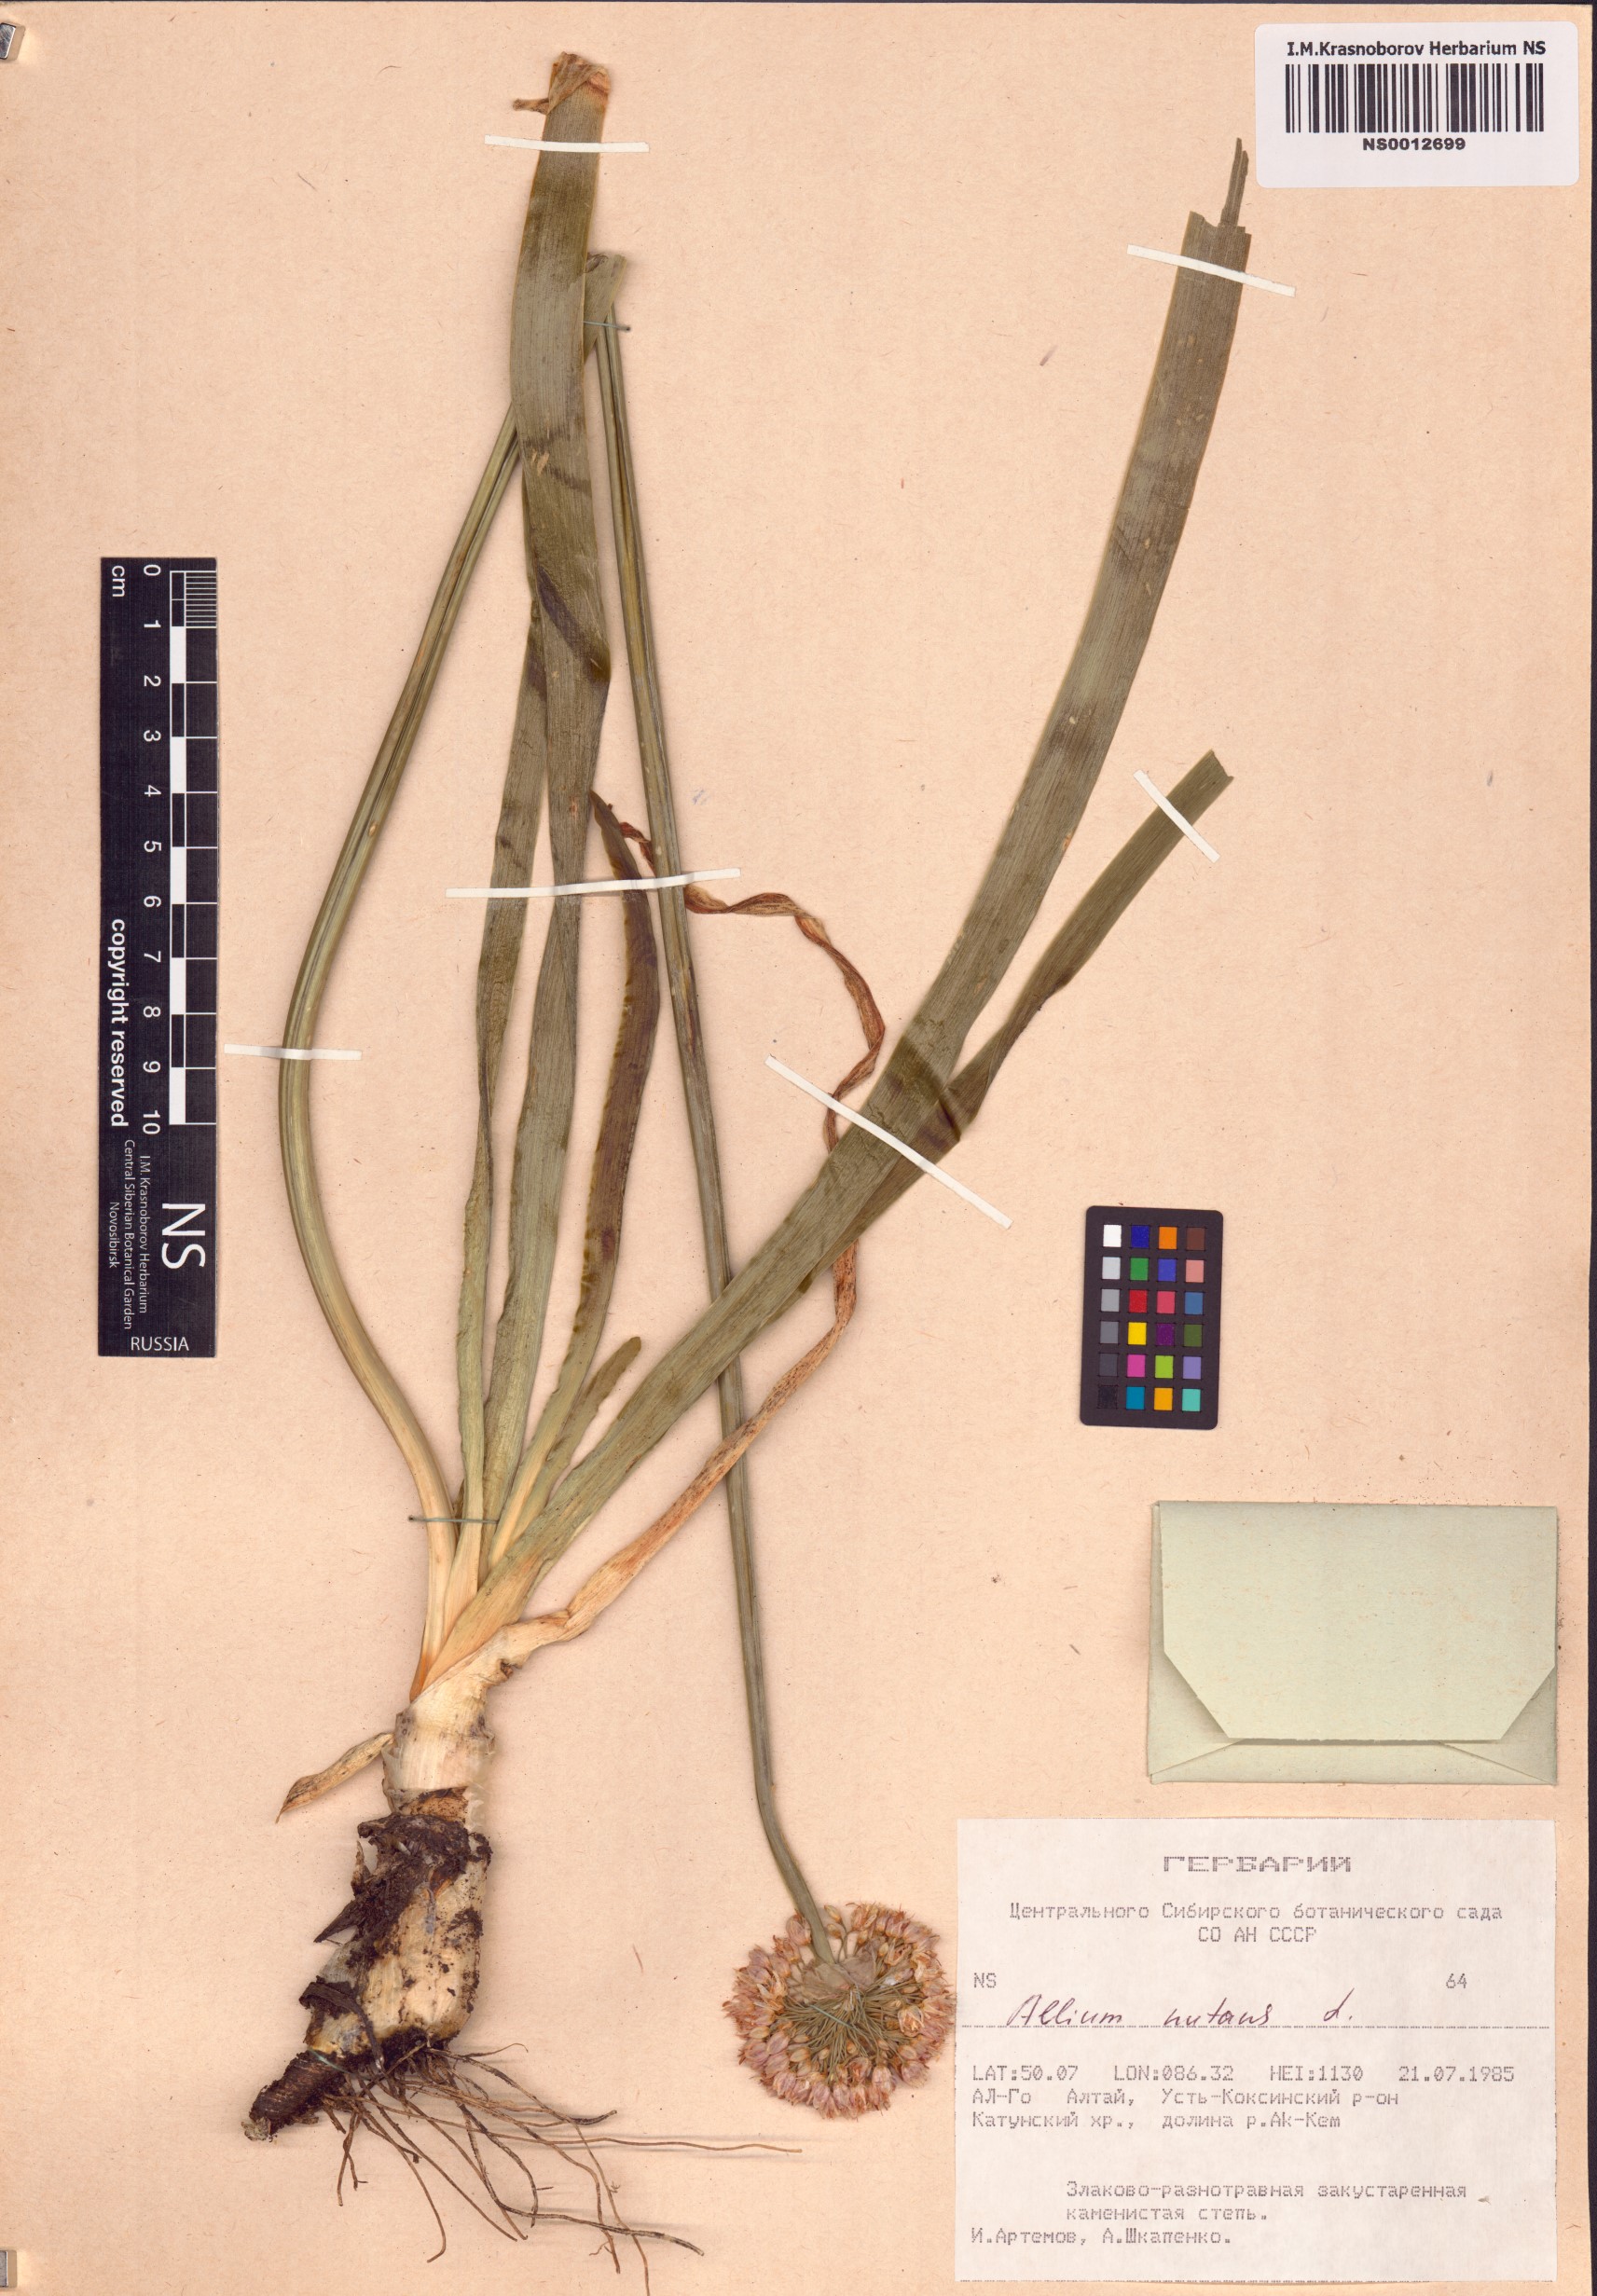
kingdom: Plantae
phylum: Tracheophyta
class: Liliopsida
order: Asparagales
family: Amaryllidaceae
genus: Allium
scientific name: Allium nutans
